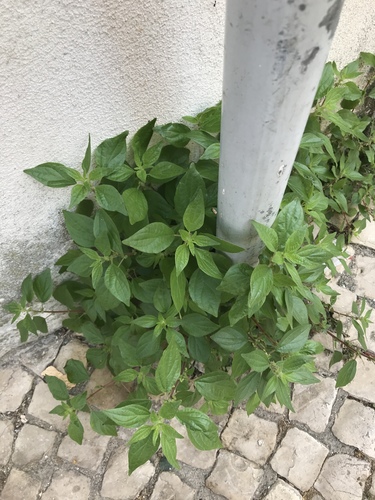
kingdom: Plantae
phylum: Tracheophyta
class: Magnoliopsida
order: Rosales
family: Urticaceae
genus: Parietaria
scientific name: Parietaria judaica
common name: Pellitory-of-the-wall
